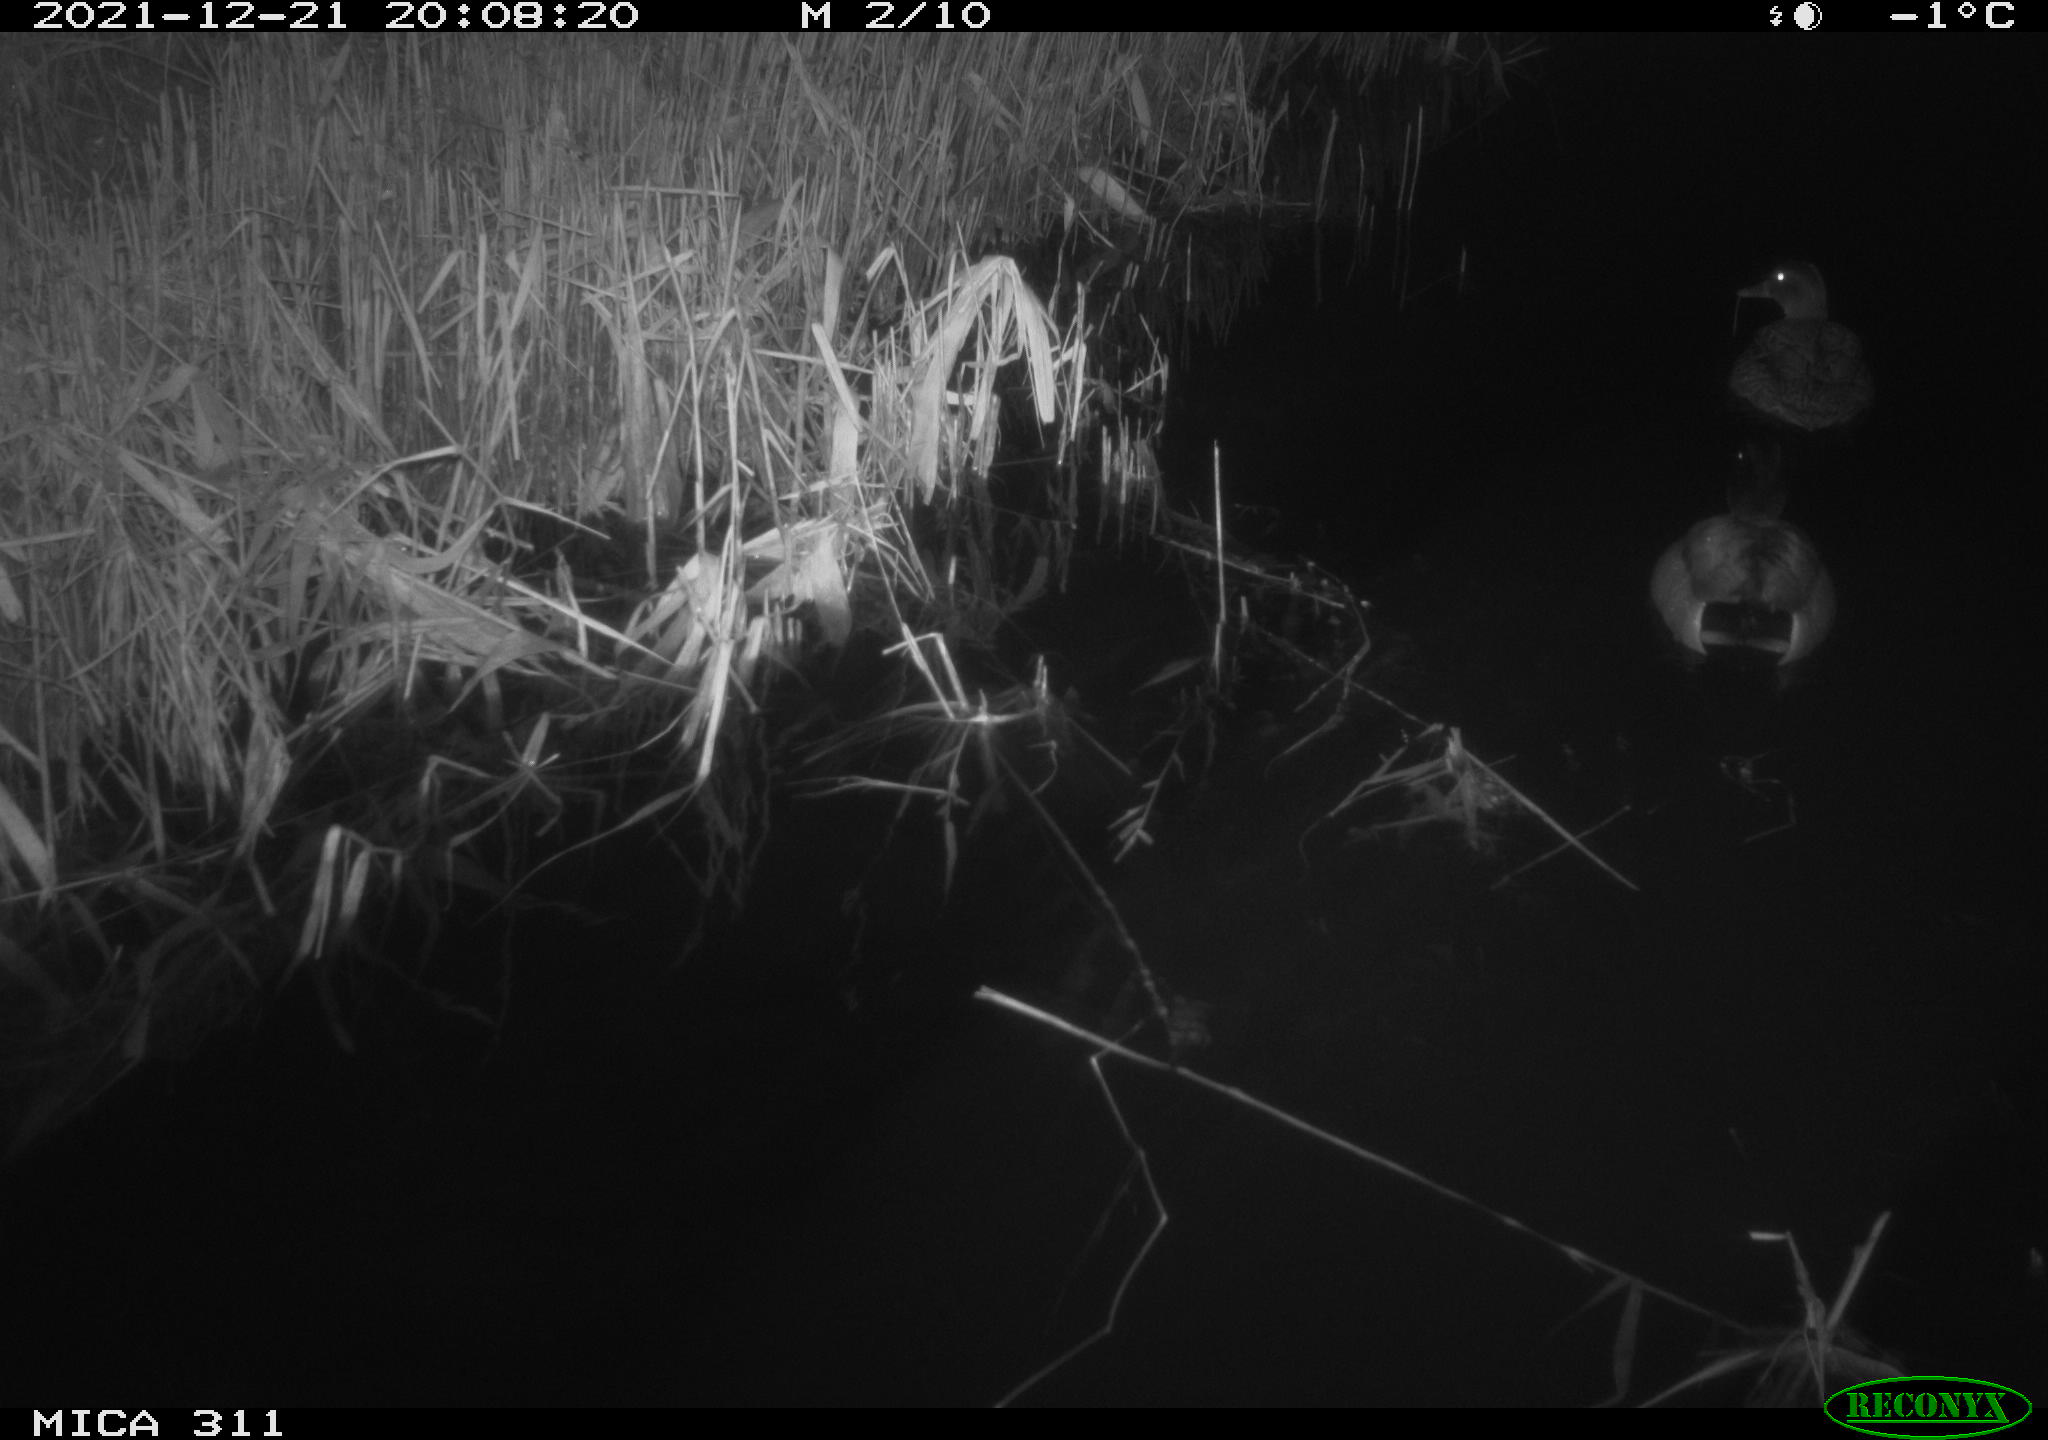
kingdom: Animalia
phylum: Chordata
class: Aves
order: Anseriformes
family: Anatidae
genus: Anas
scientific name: Anas platyrhynchos
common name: Mallard
